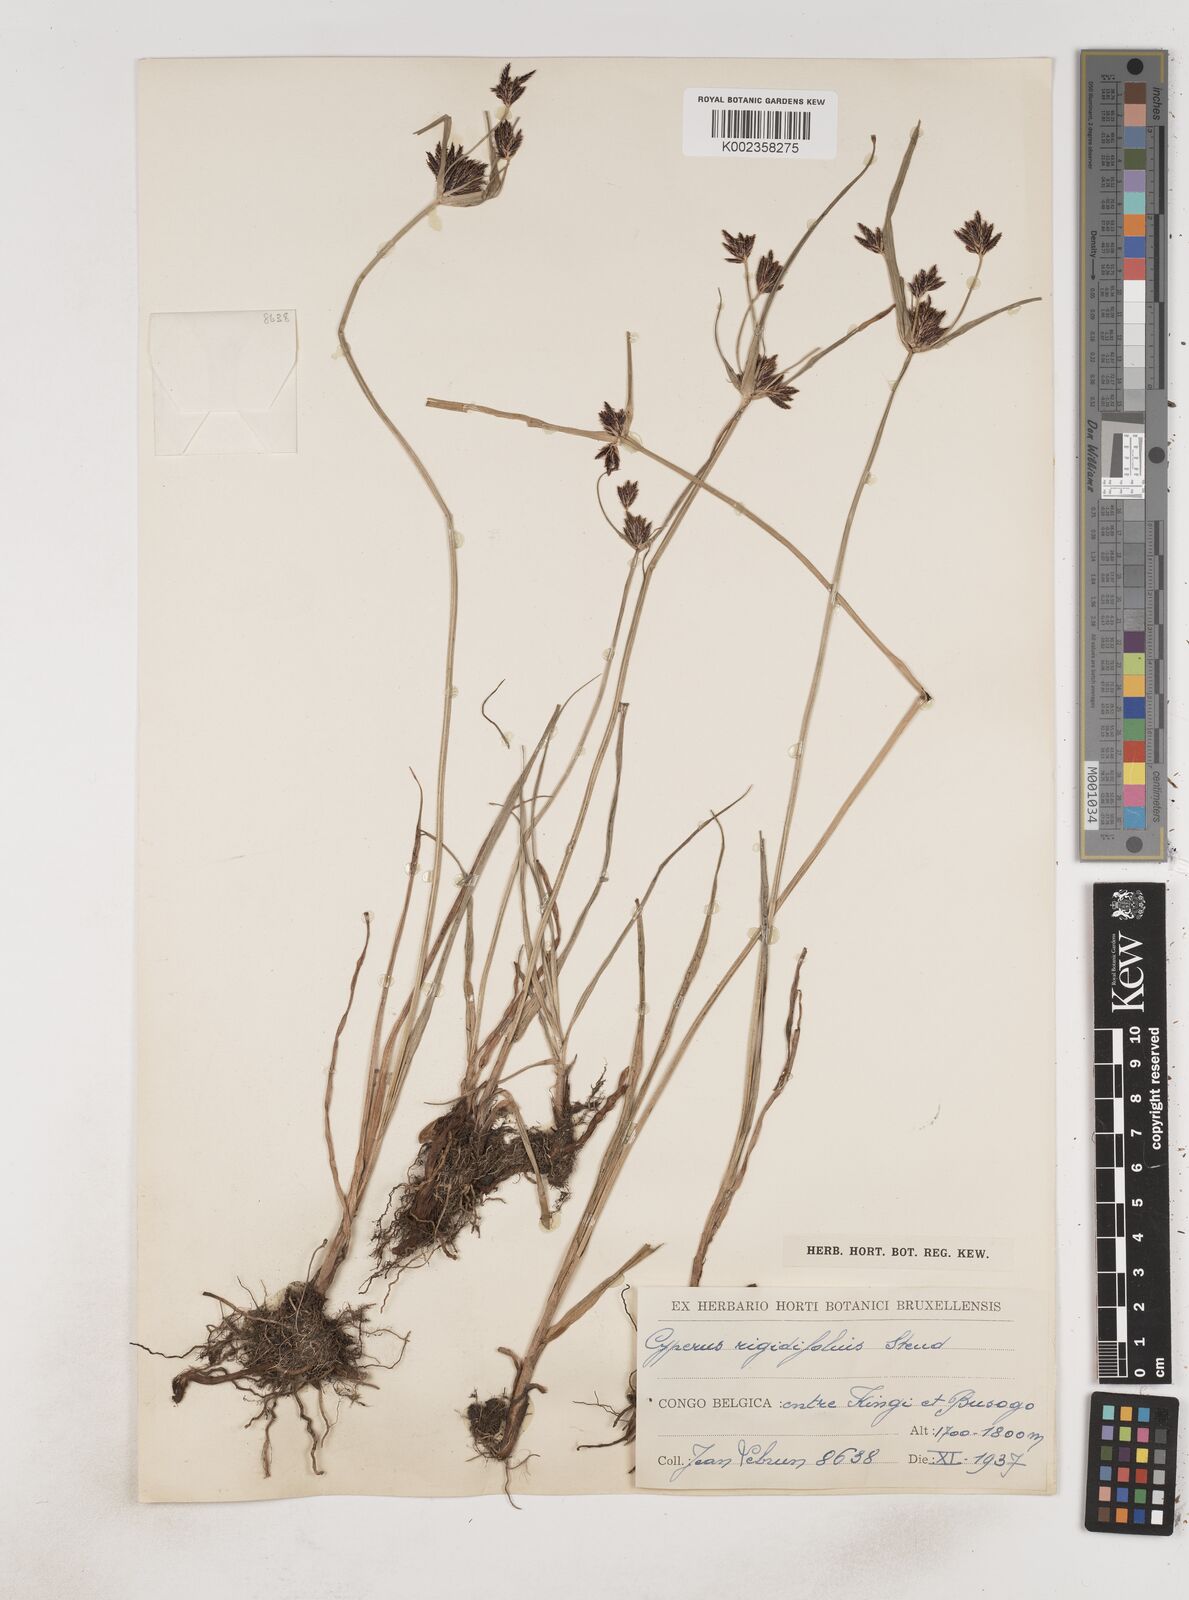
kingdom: Plantae
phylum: Tracheophyta
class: Liliopsida
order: Poales
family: Cyperaceae
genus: Cyperus
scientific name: Cyperus rigidifolius
